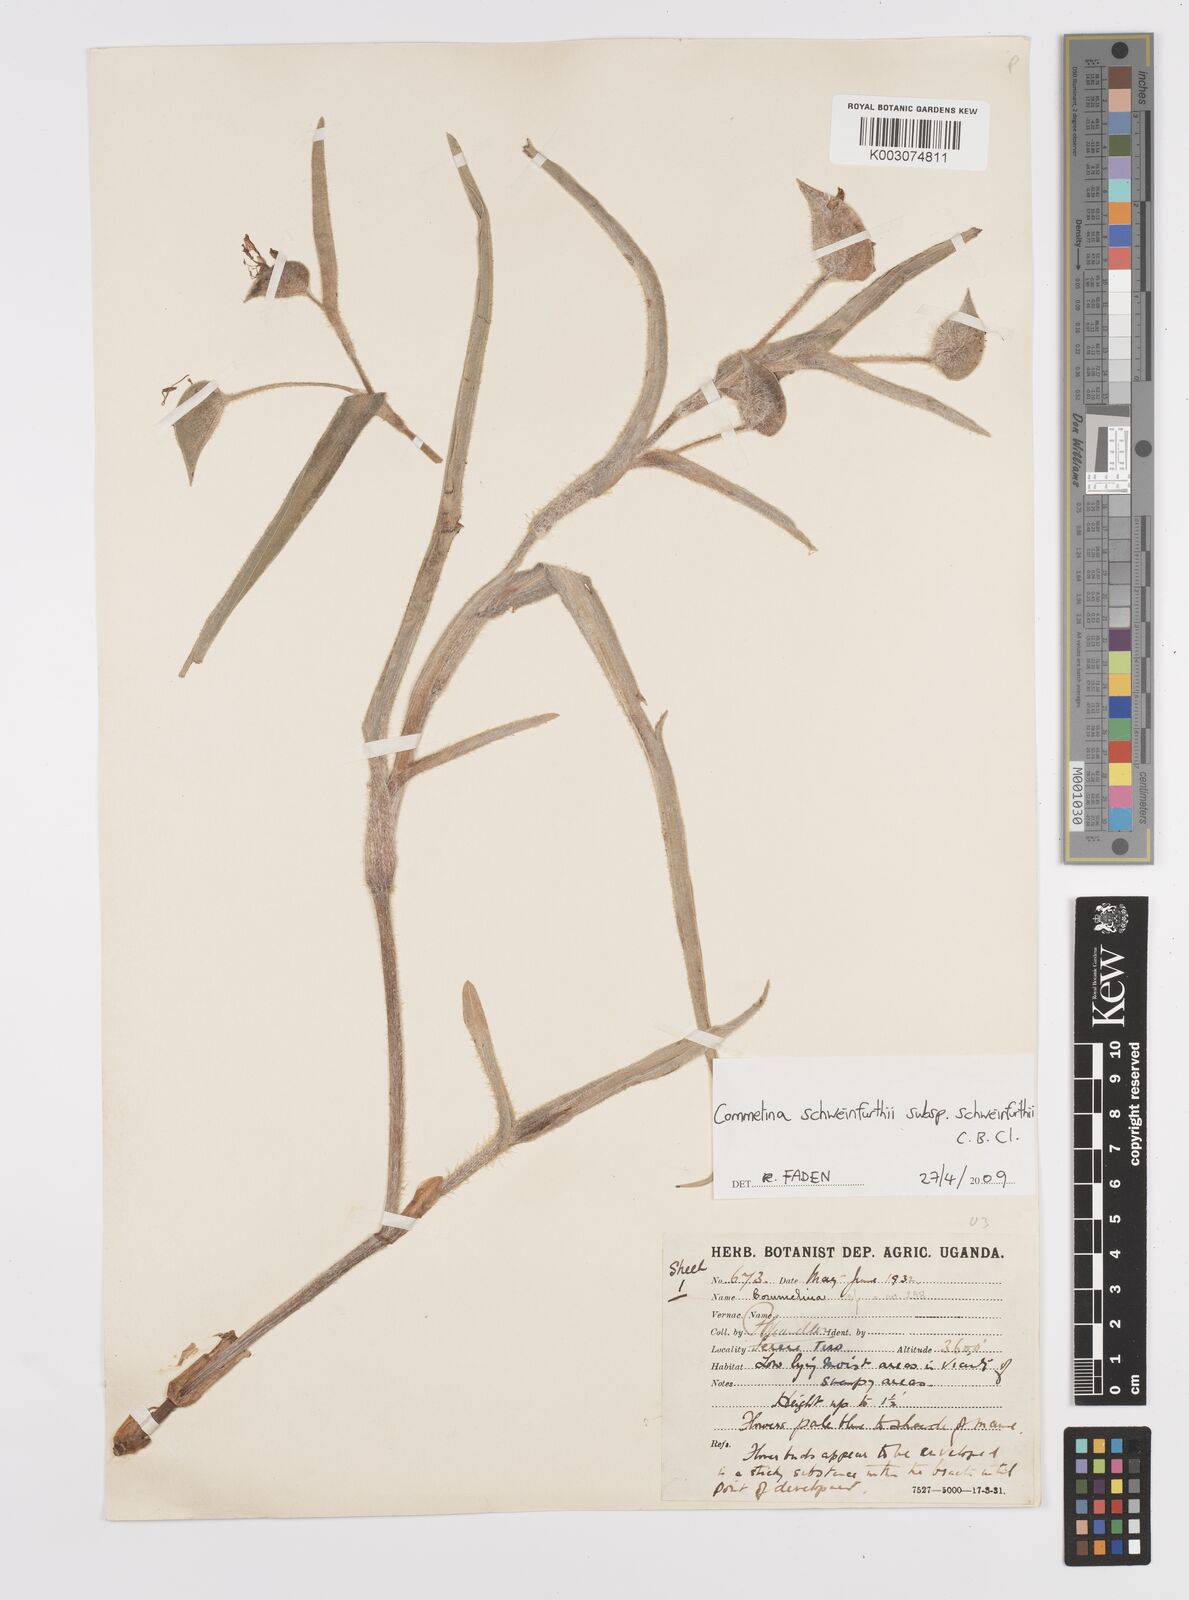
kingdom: Plantae
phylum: Tracheophyta
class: Liliopsida
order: Commelinales
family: Commelinaceae
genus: Commelina
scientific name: Commelina schweinfurthii
